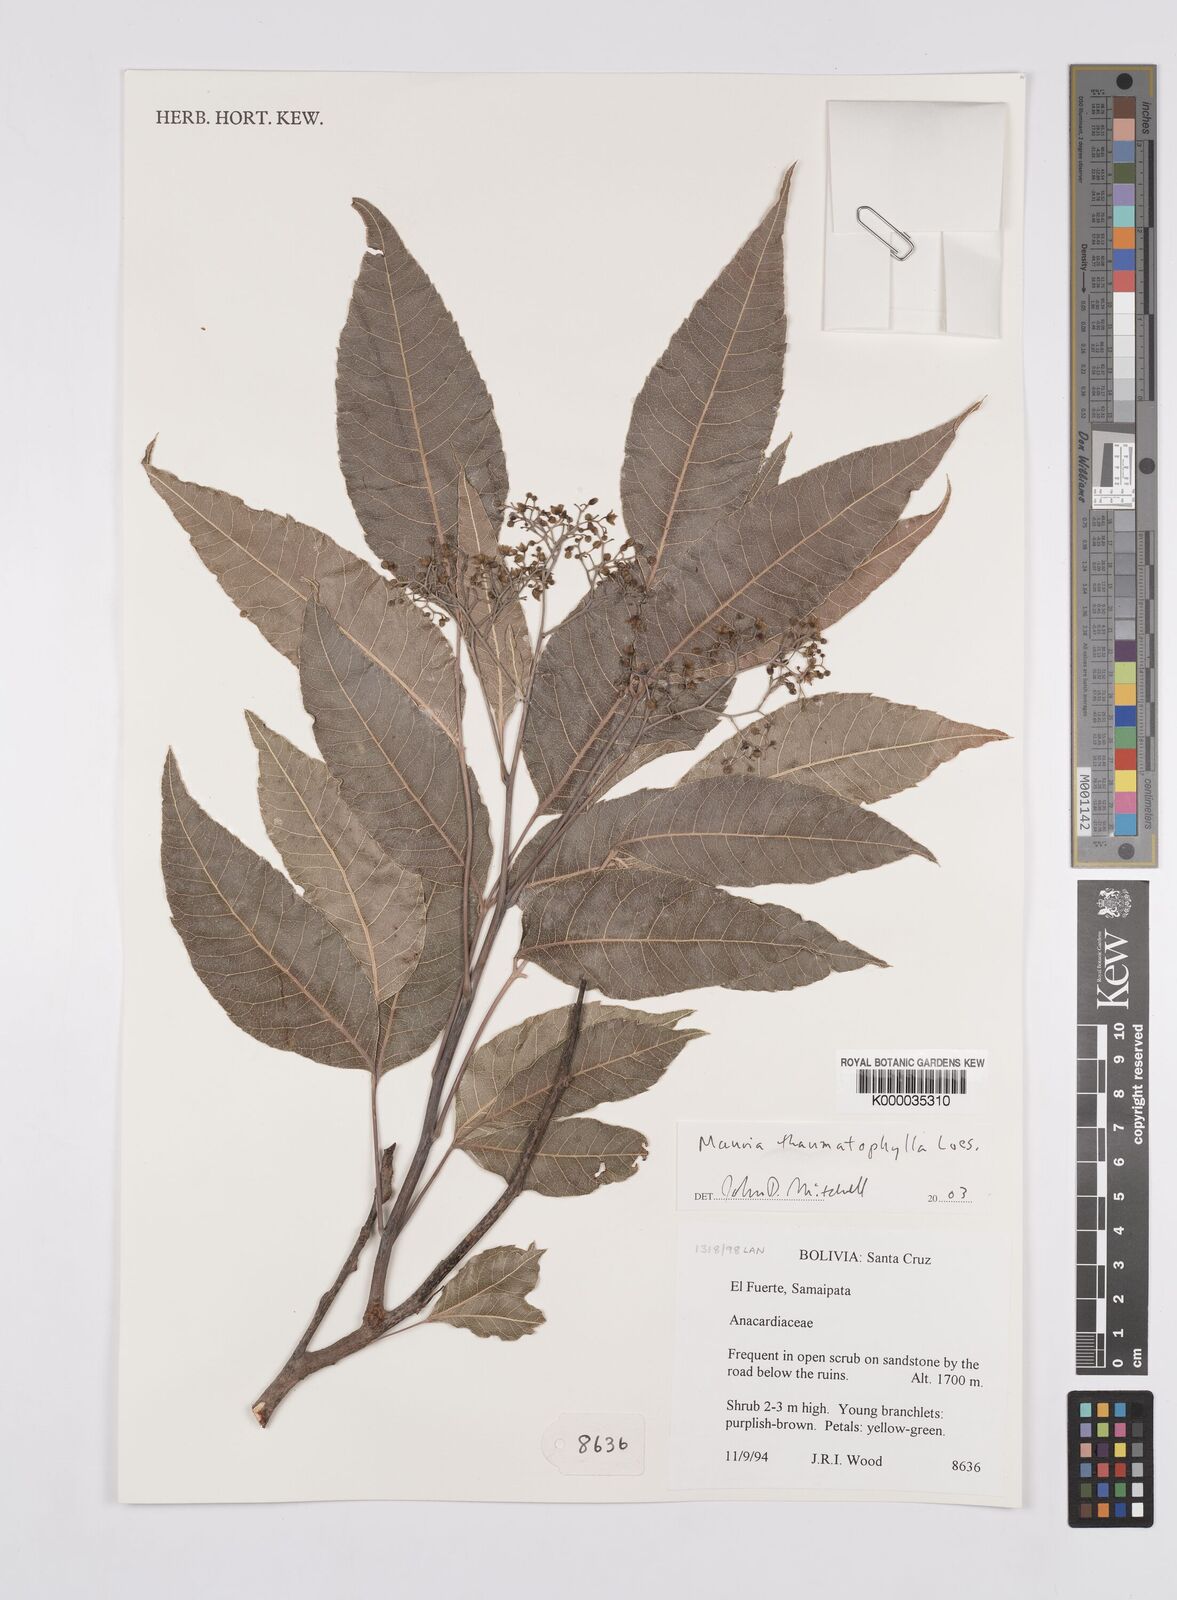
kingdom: Plantae
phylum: Tracheophyta
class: Magnoliopsida
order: Sapindales
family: Anacardiaceae
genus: Mauria
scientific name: Mauria thaumatophylla
